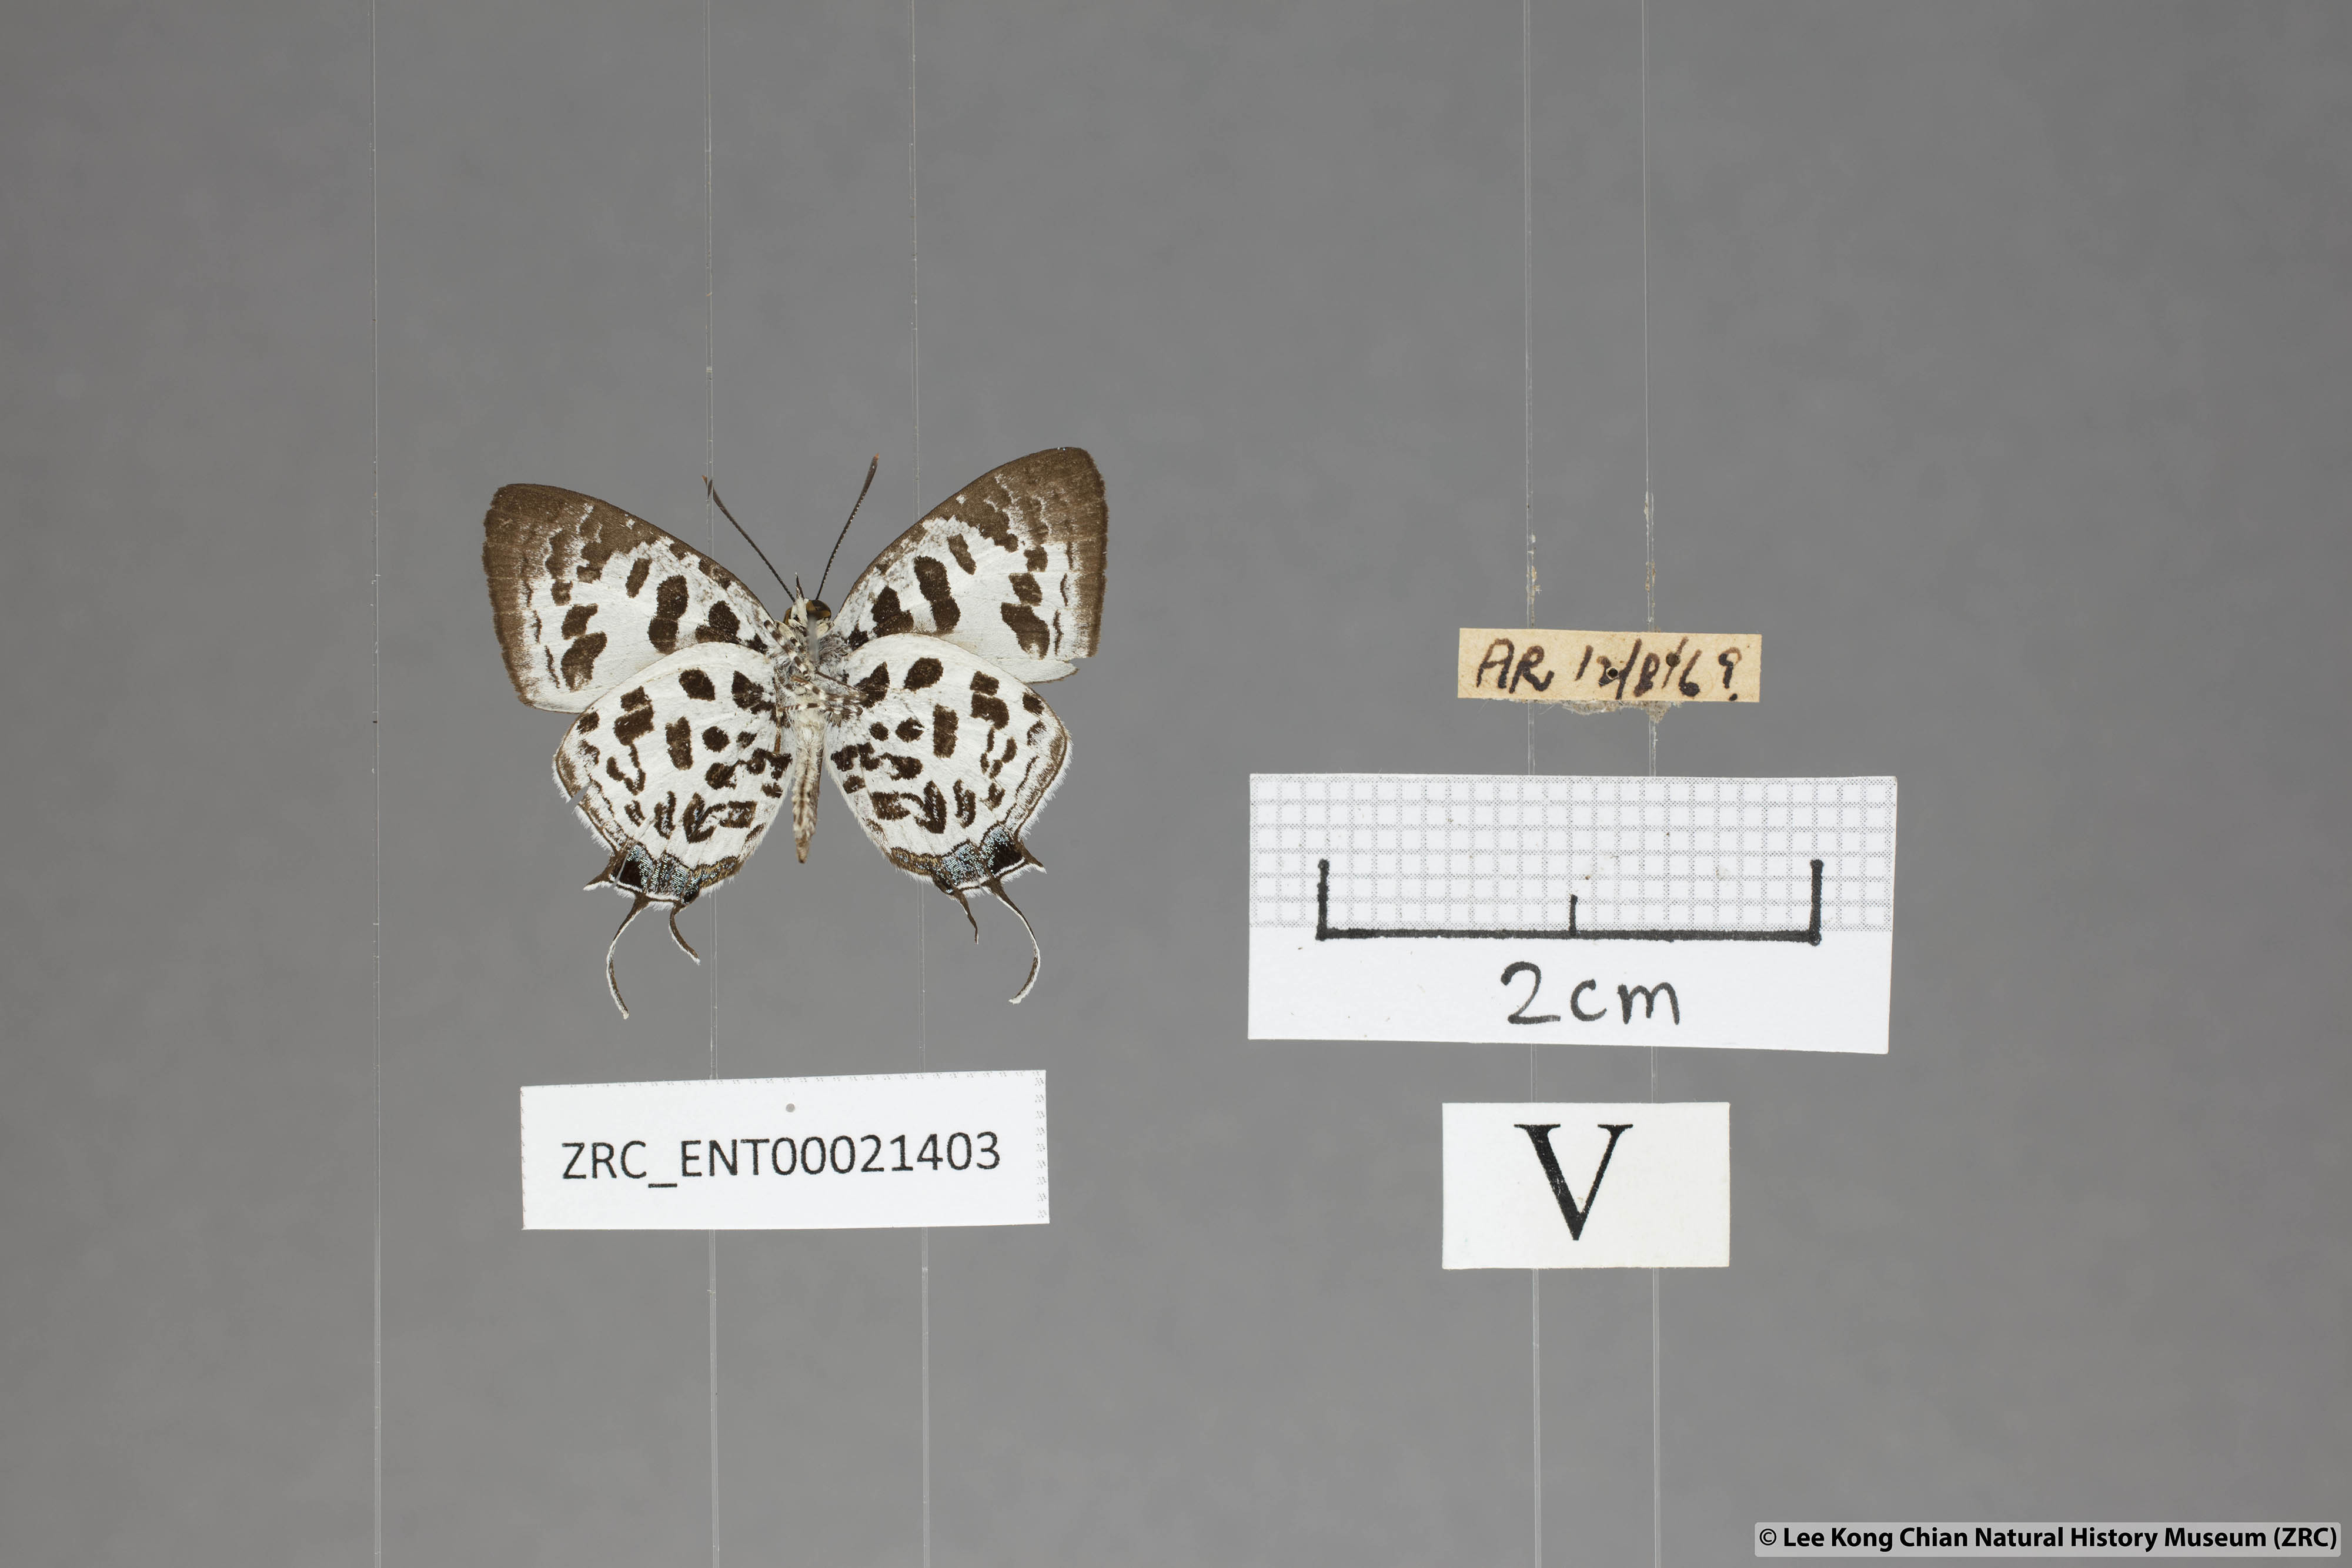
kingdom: Animalia
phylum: Arthropoda
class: Insecta
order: Lepidoptera
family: Lycaenidae
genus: Drupadia
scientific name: Drupadia scaeva
